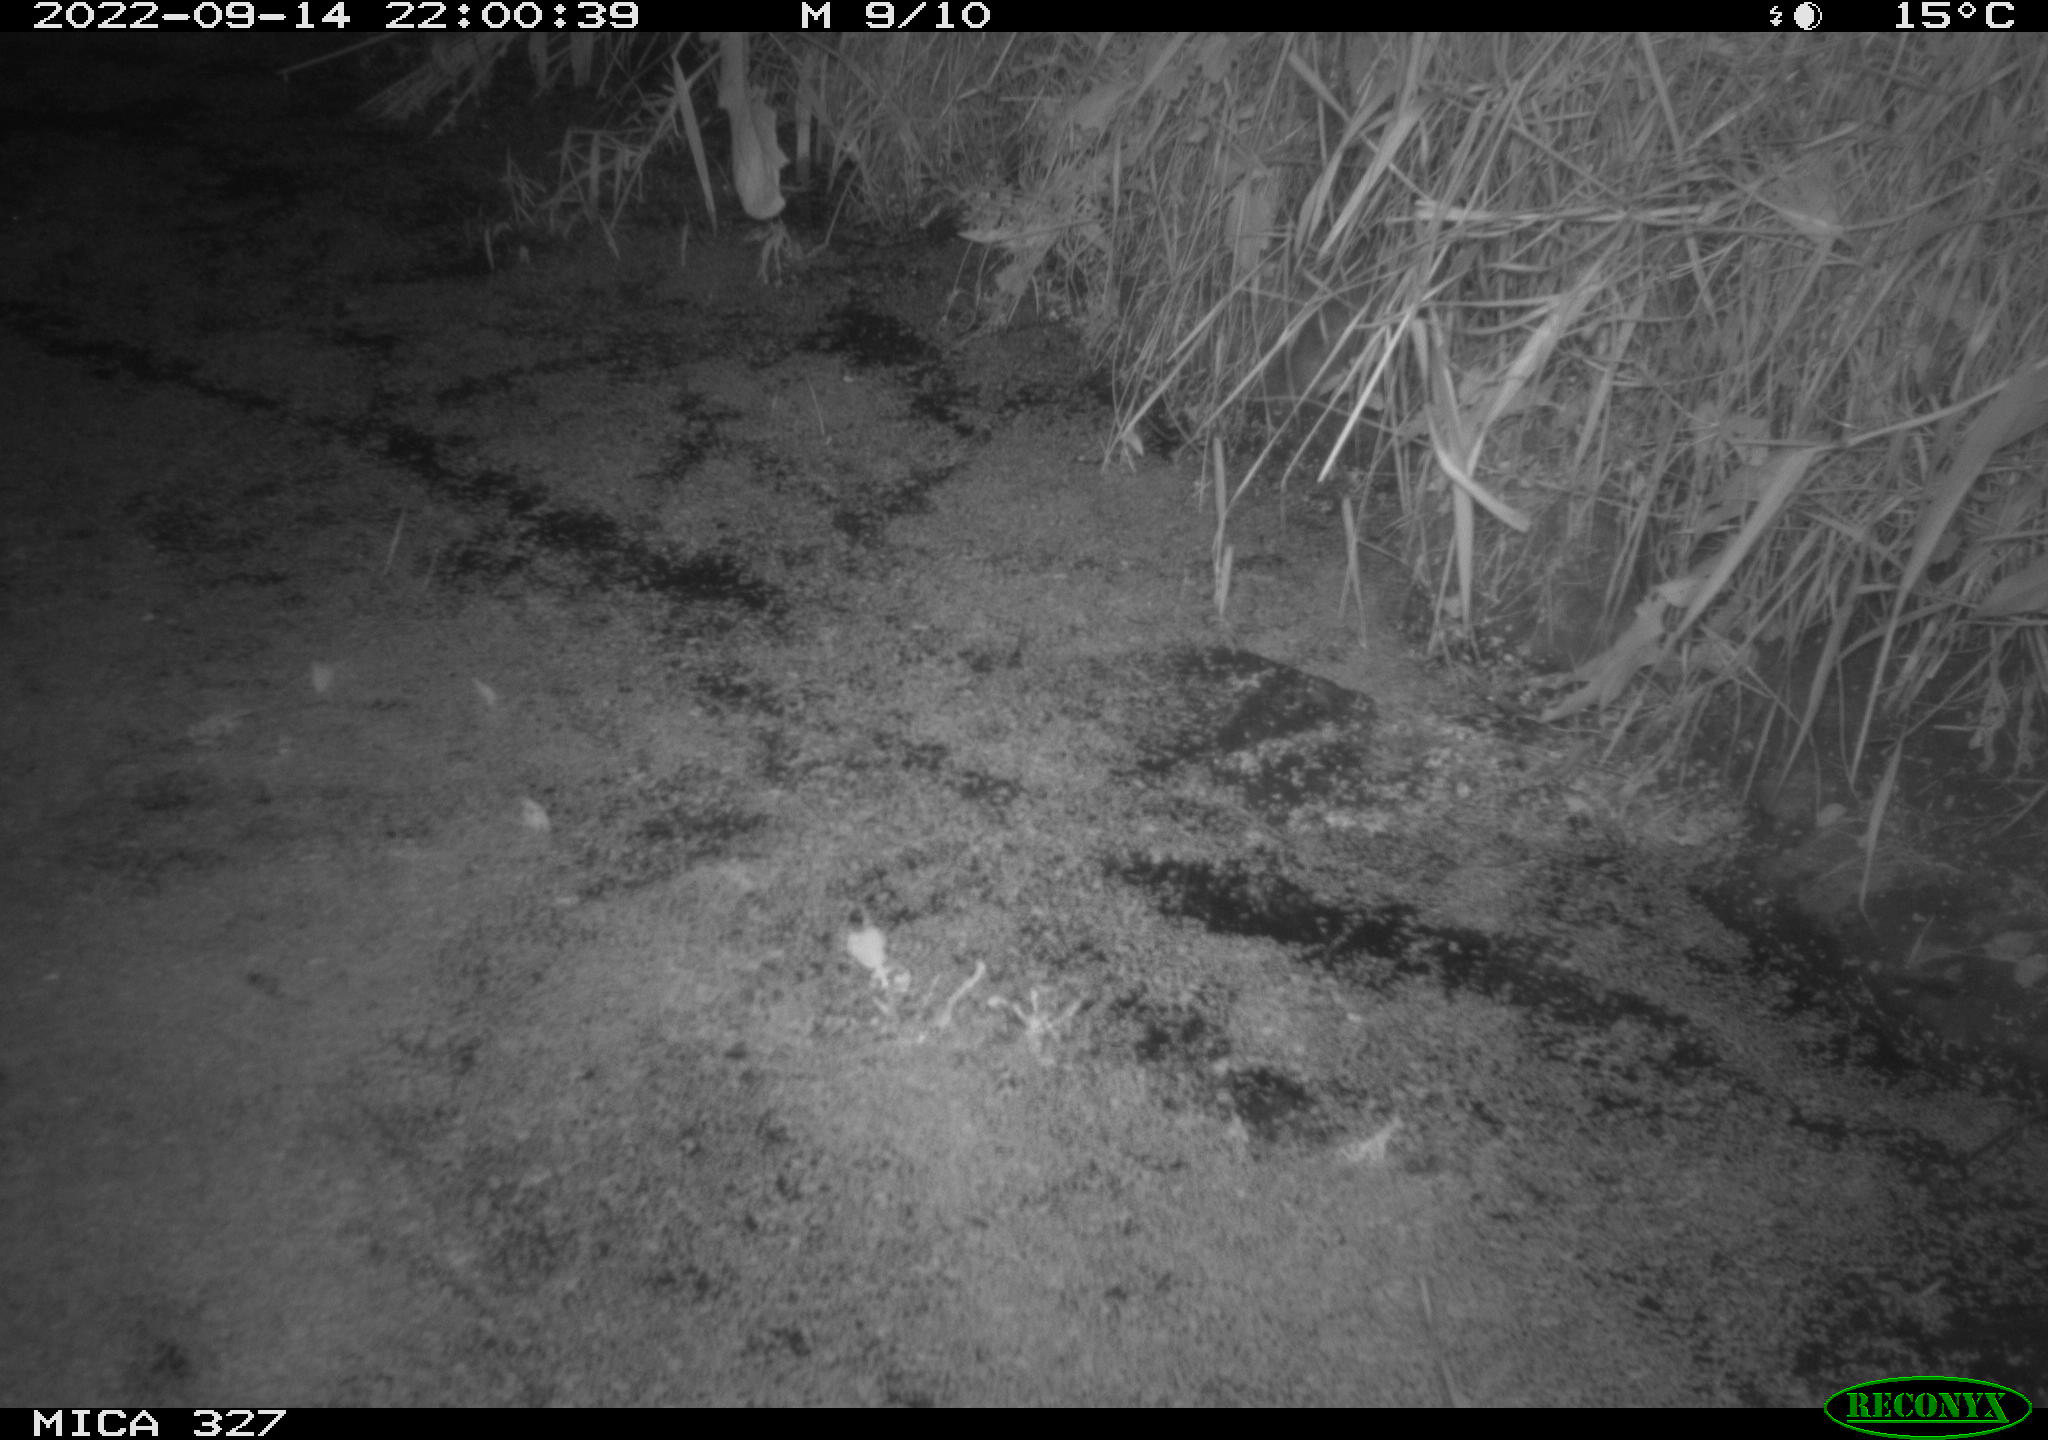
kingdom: Animalia
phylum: Chordata
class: Mammalia
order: Rodentia
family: Cricetidae
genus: Ondatra
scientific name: Ondatra zibethicus
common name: Muskrat
